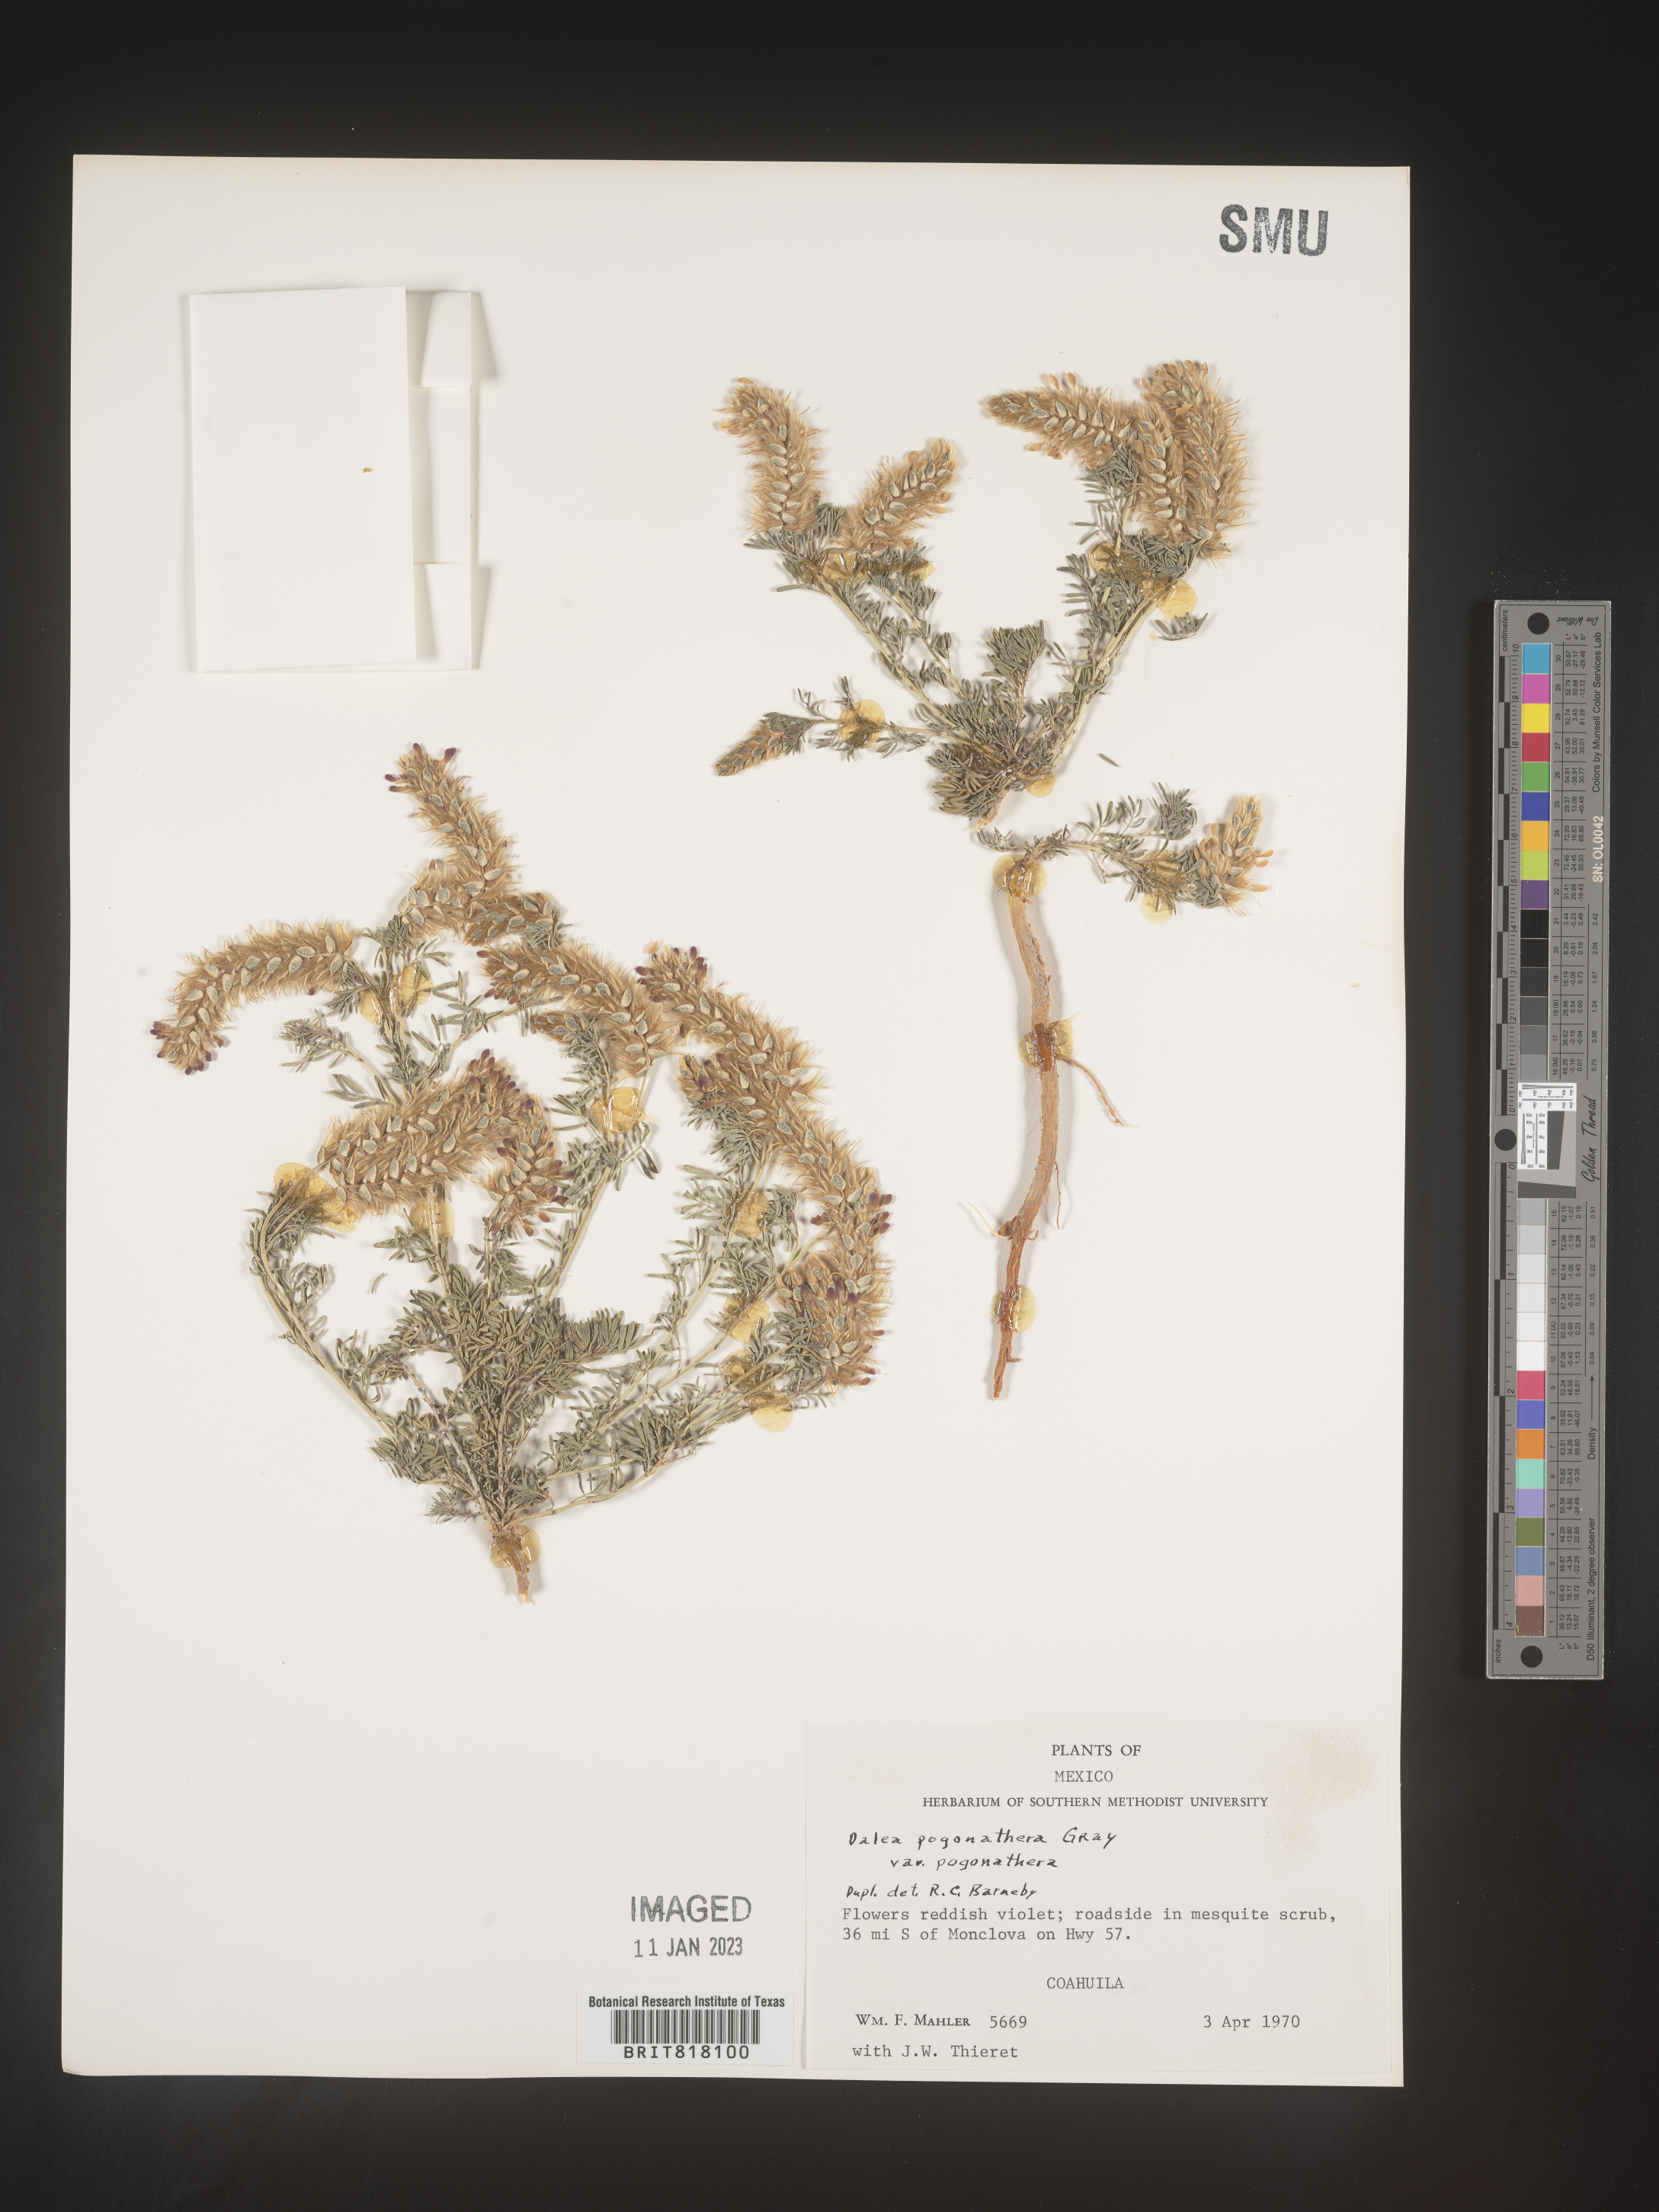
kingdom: Plantae
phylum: Tracheophyta
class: Magnoliopsida
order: Fabales
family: Fabaceae
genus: Dalea
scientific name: Dalea
